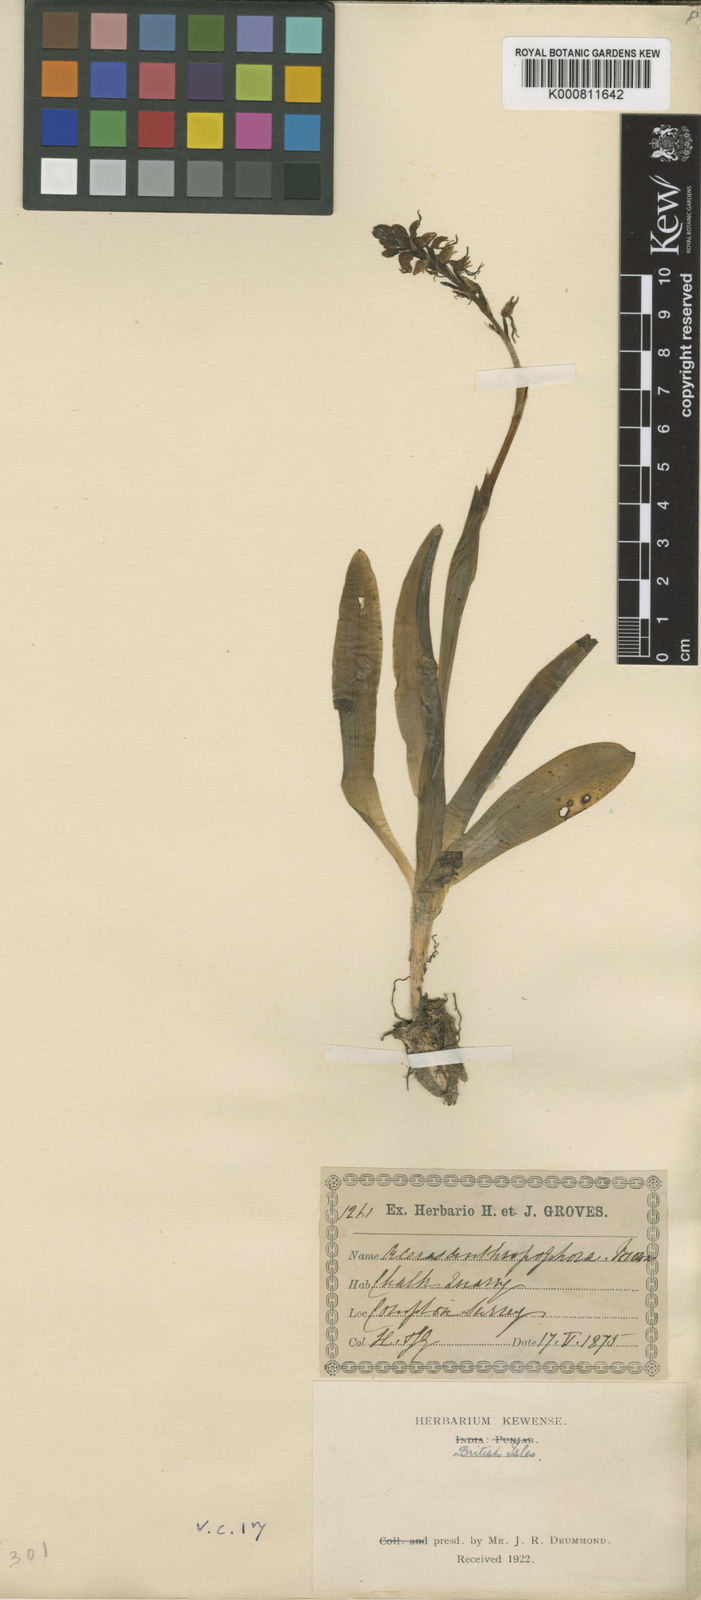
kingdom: Plantae
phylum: Tracheophyta
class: Liliopsida
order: Asparagales
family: Orchidaceae
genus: Orchis
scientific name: Orchis
